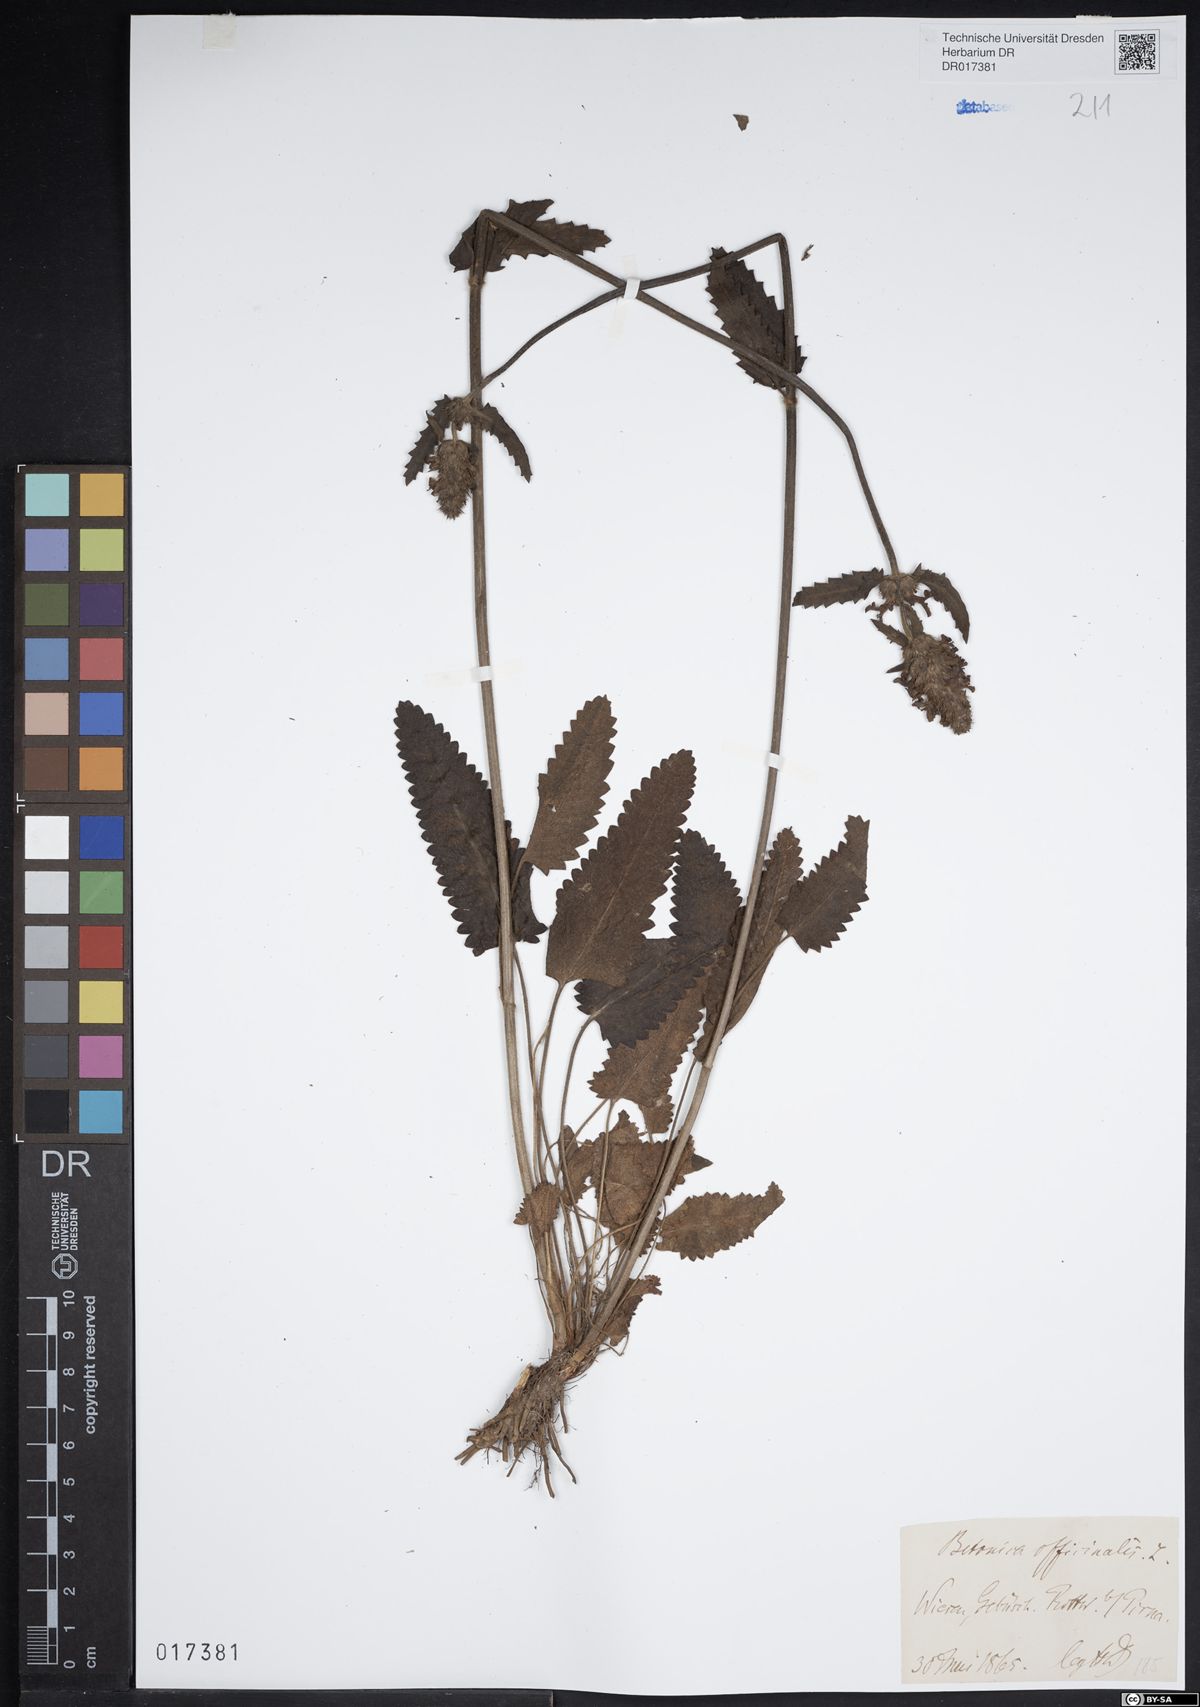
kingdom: Plantae
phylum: Tracheophyta
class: Magnoliopsida
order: Lamiales
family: Lamiaceae
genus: Betonica
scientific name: Betonica officinalis
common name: Bishop's-wort
